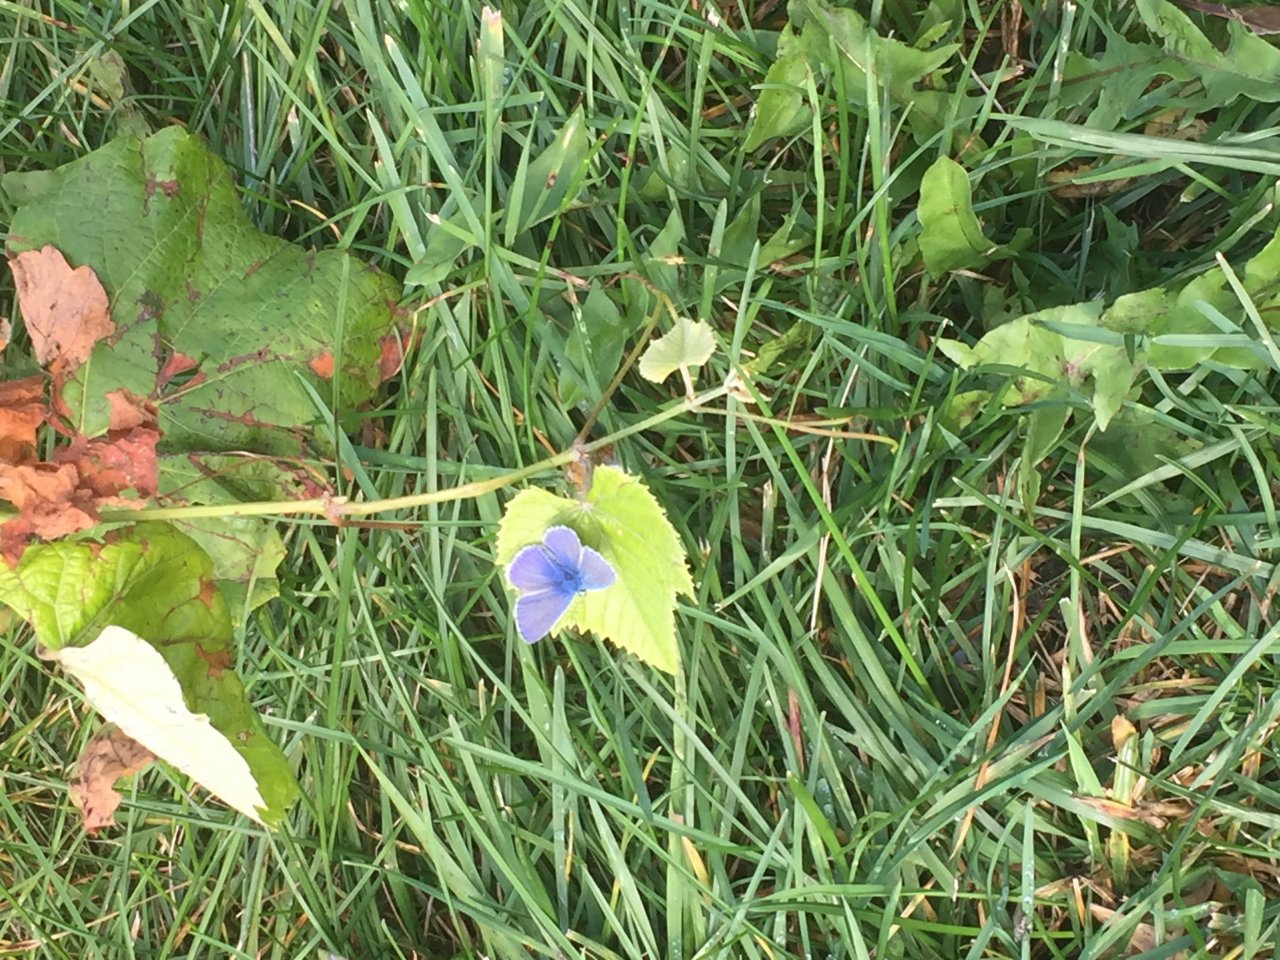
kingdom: Animalia
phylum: Arthropoda
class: Insecta
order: Lepidoptera
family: Lycaenidae
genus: Polyommatus
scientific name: Polyommatus icarus
